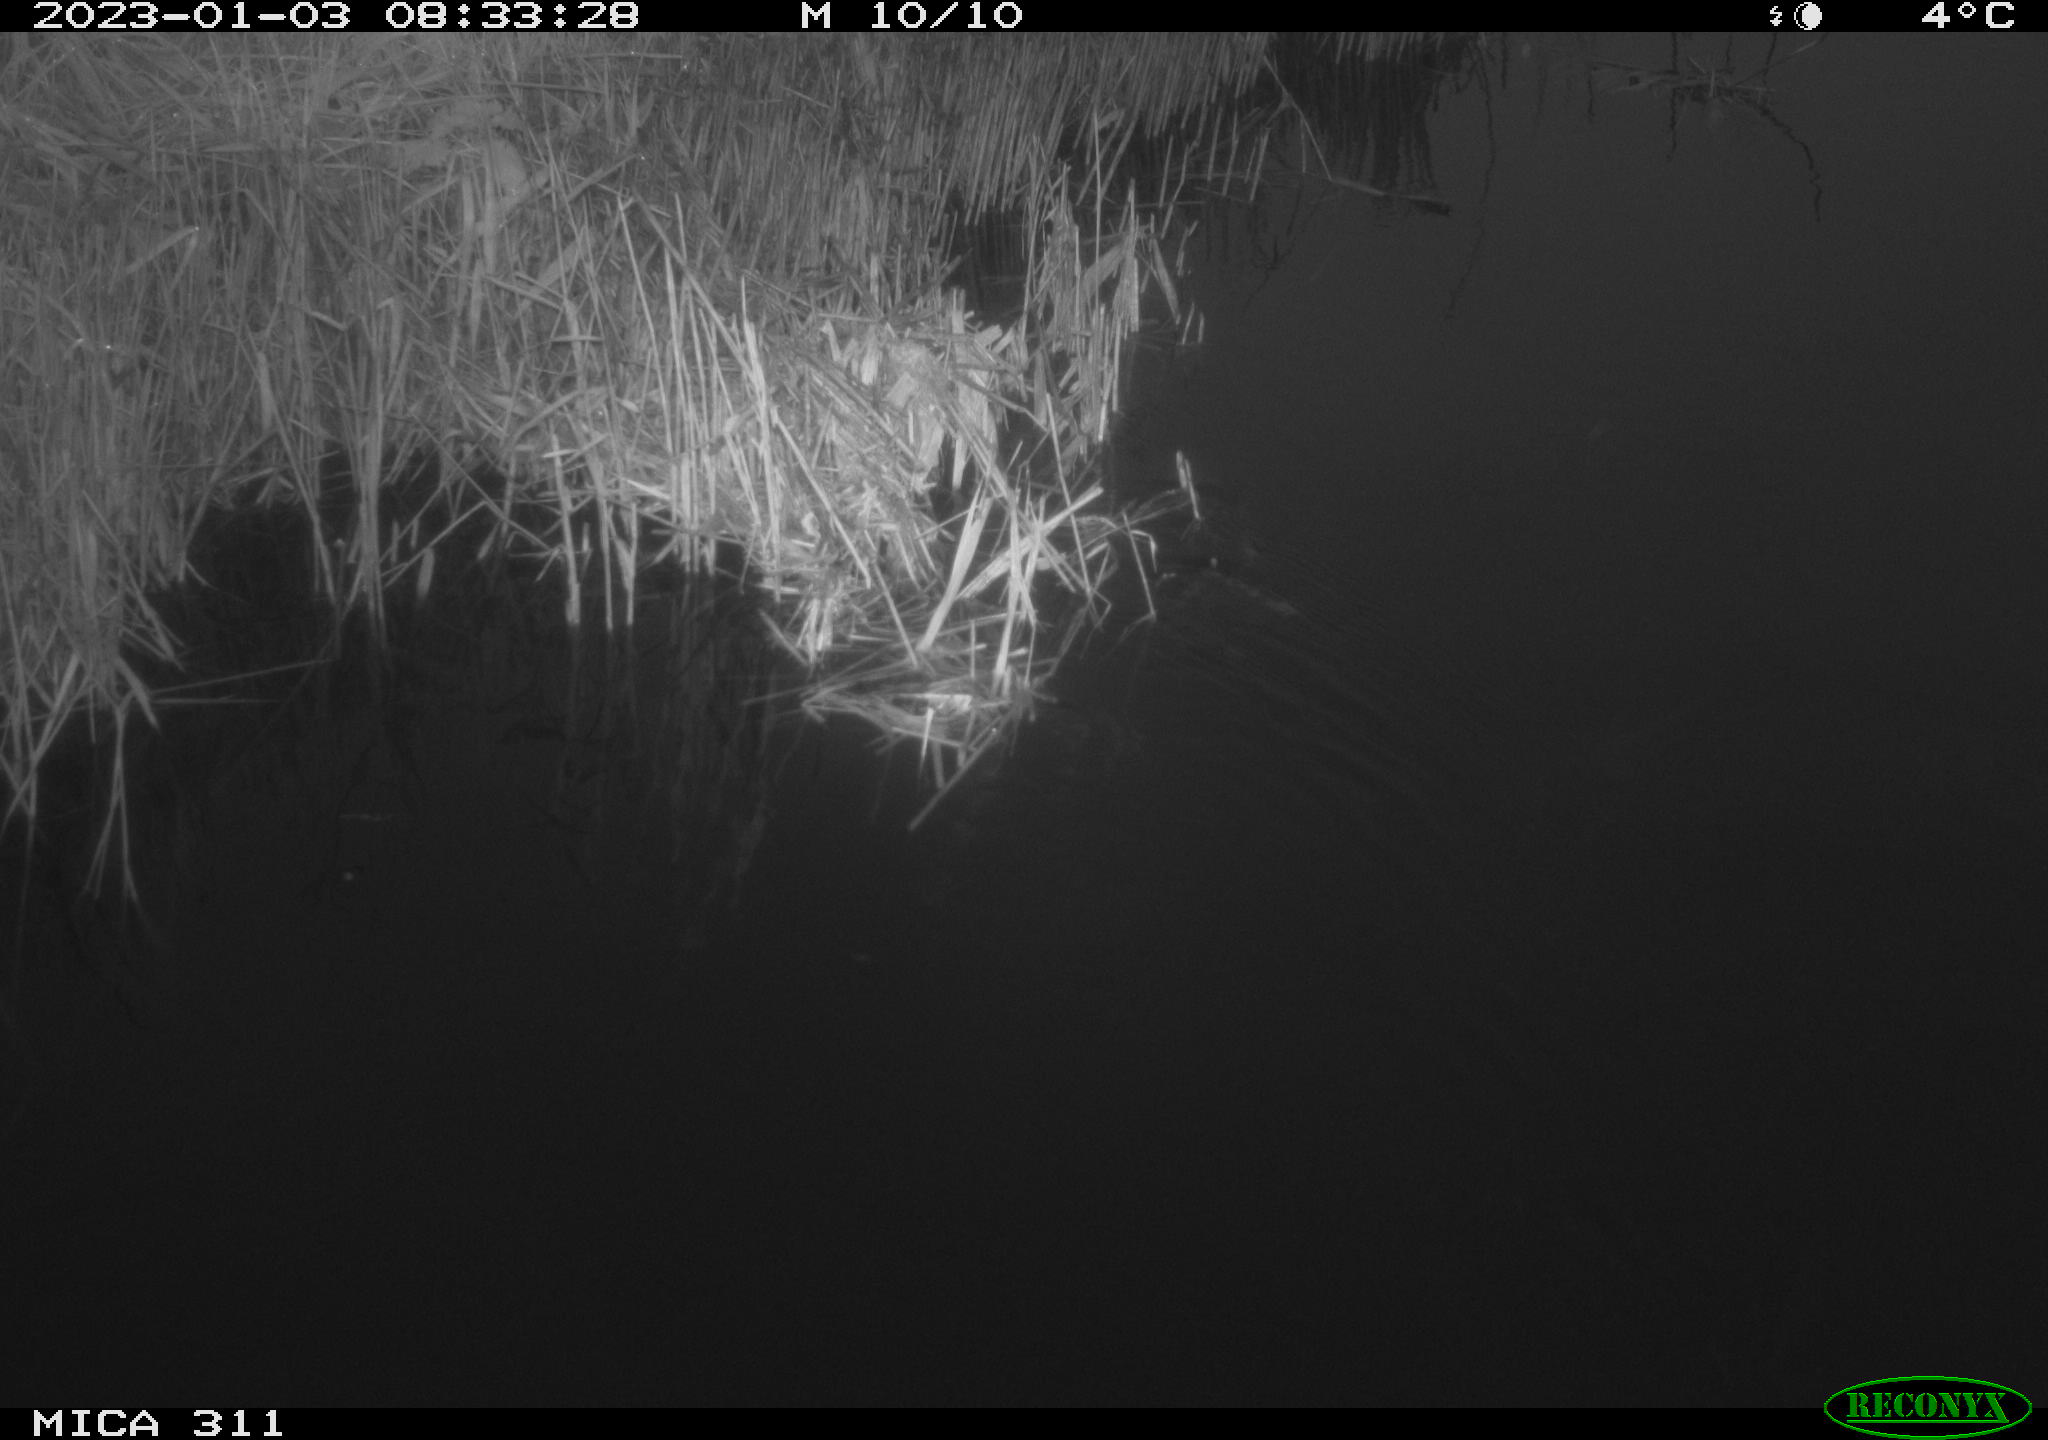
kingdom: Animalia
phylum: Chordata
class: Aves
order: Gruiformes
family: Rallidae
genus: Gallinula
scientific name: Gallinula chloropus
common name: Common moorhen
